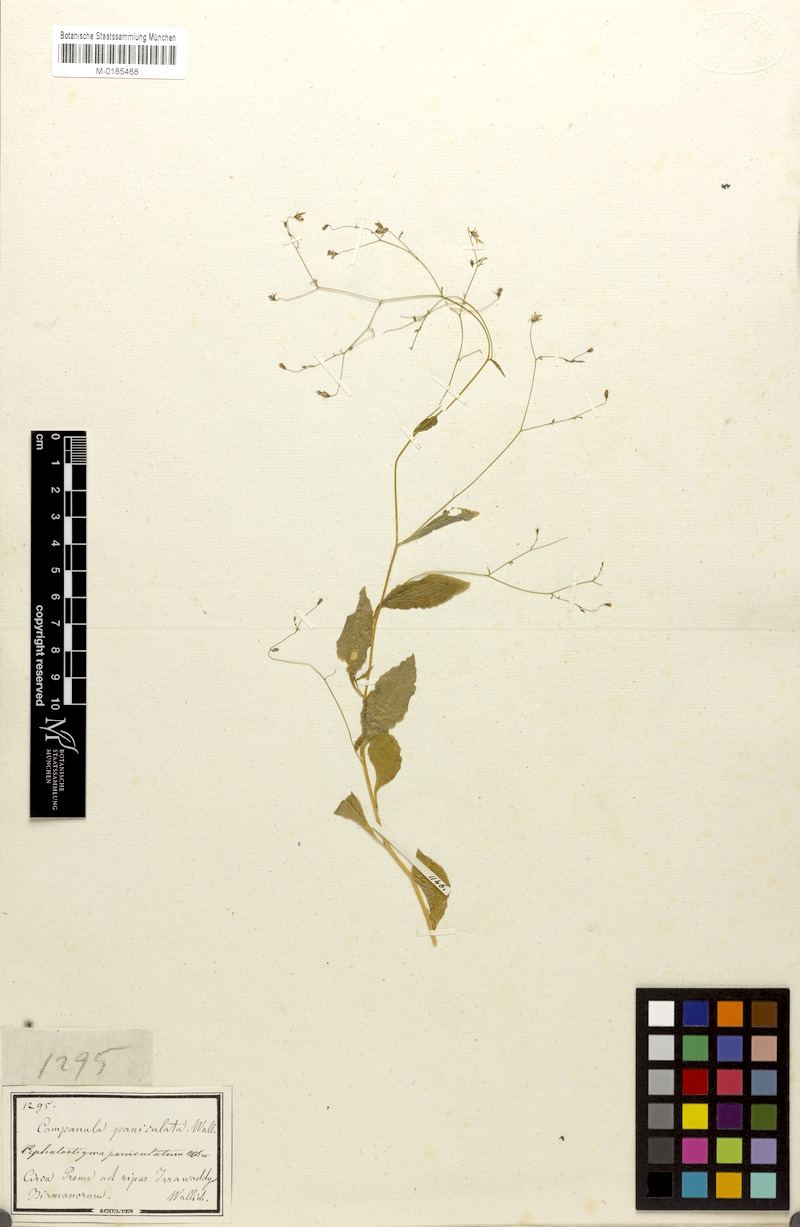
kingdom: Plantae
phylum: Tracheophyta
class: Magnoliopsida
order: Asterales
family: Campanulaceae
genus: Wahlenbergia
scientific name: Wahlenbergia candollei
